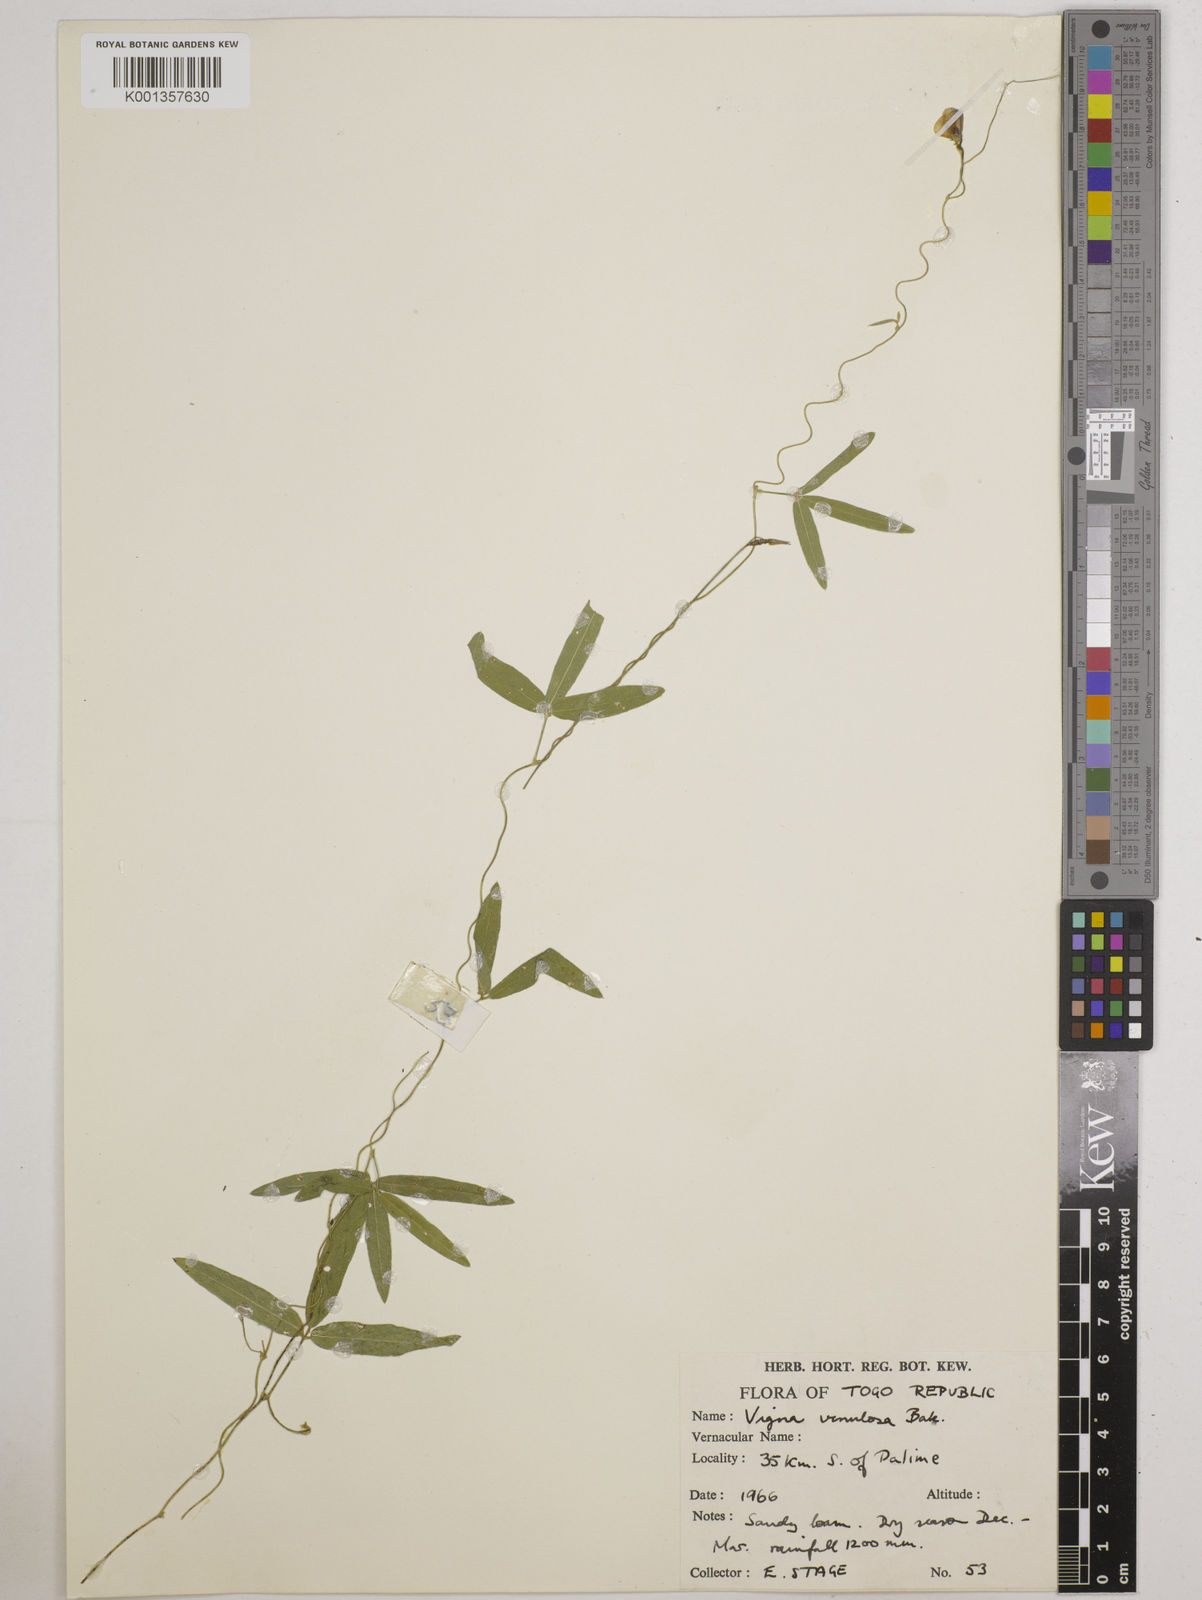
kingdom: Plantae
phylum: Tracheophyta
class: Magnoliopsida
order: Fabales
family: Fabaceae
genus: Vigna
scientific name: Vigna venulosa
